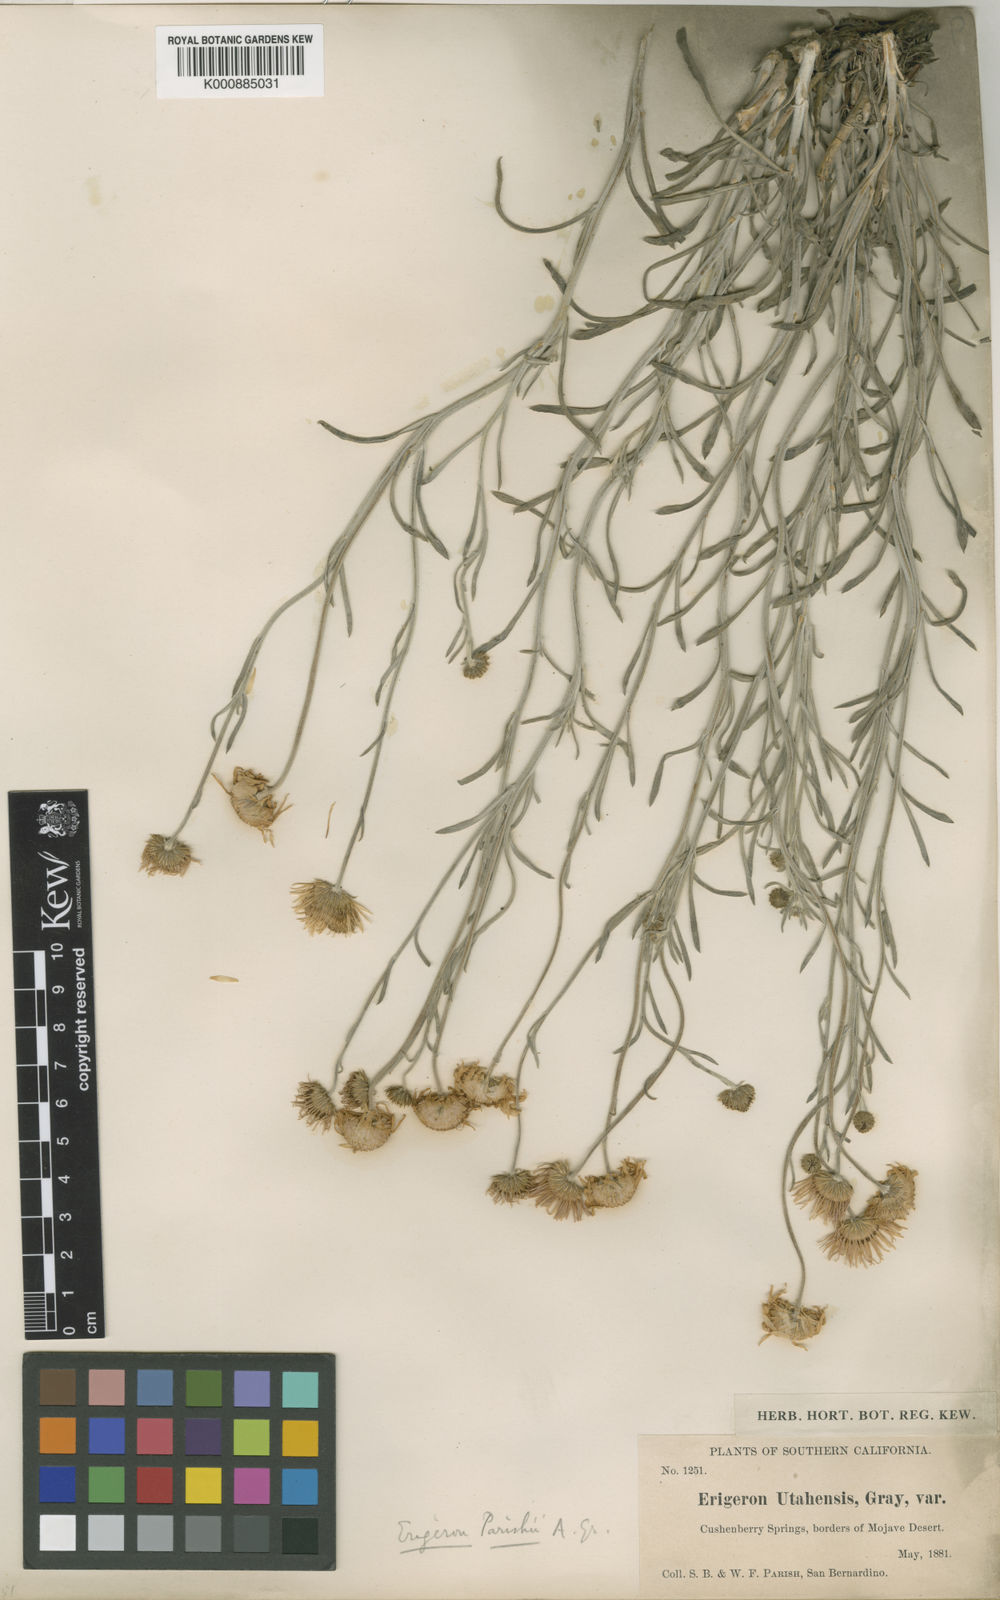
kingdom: Plantae
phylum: Tracheophyta
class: Magnoliopsida
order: Asterales
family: Asteraceae
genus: Erigeron
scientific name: Erigeron
